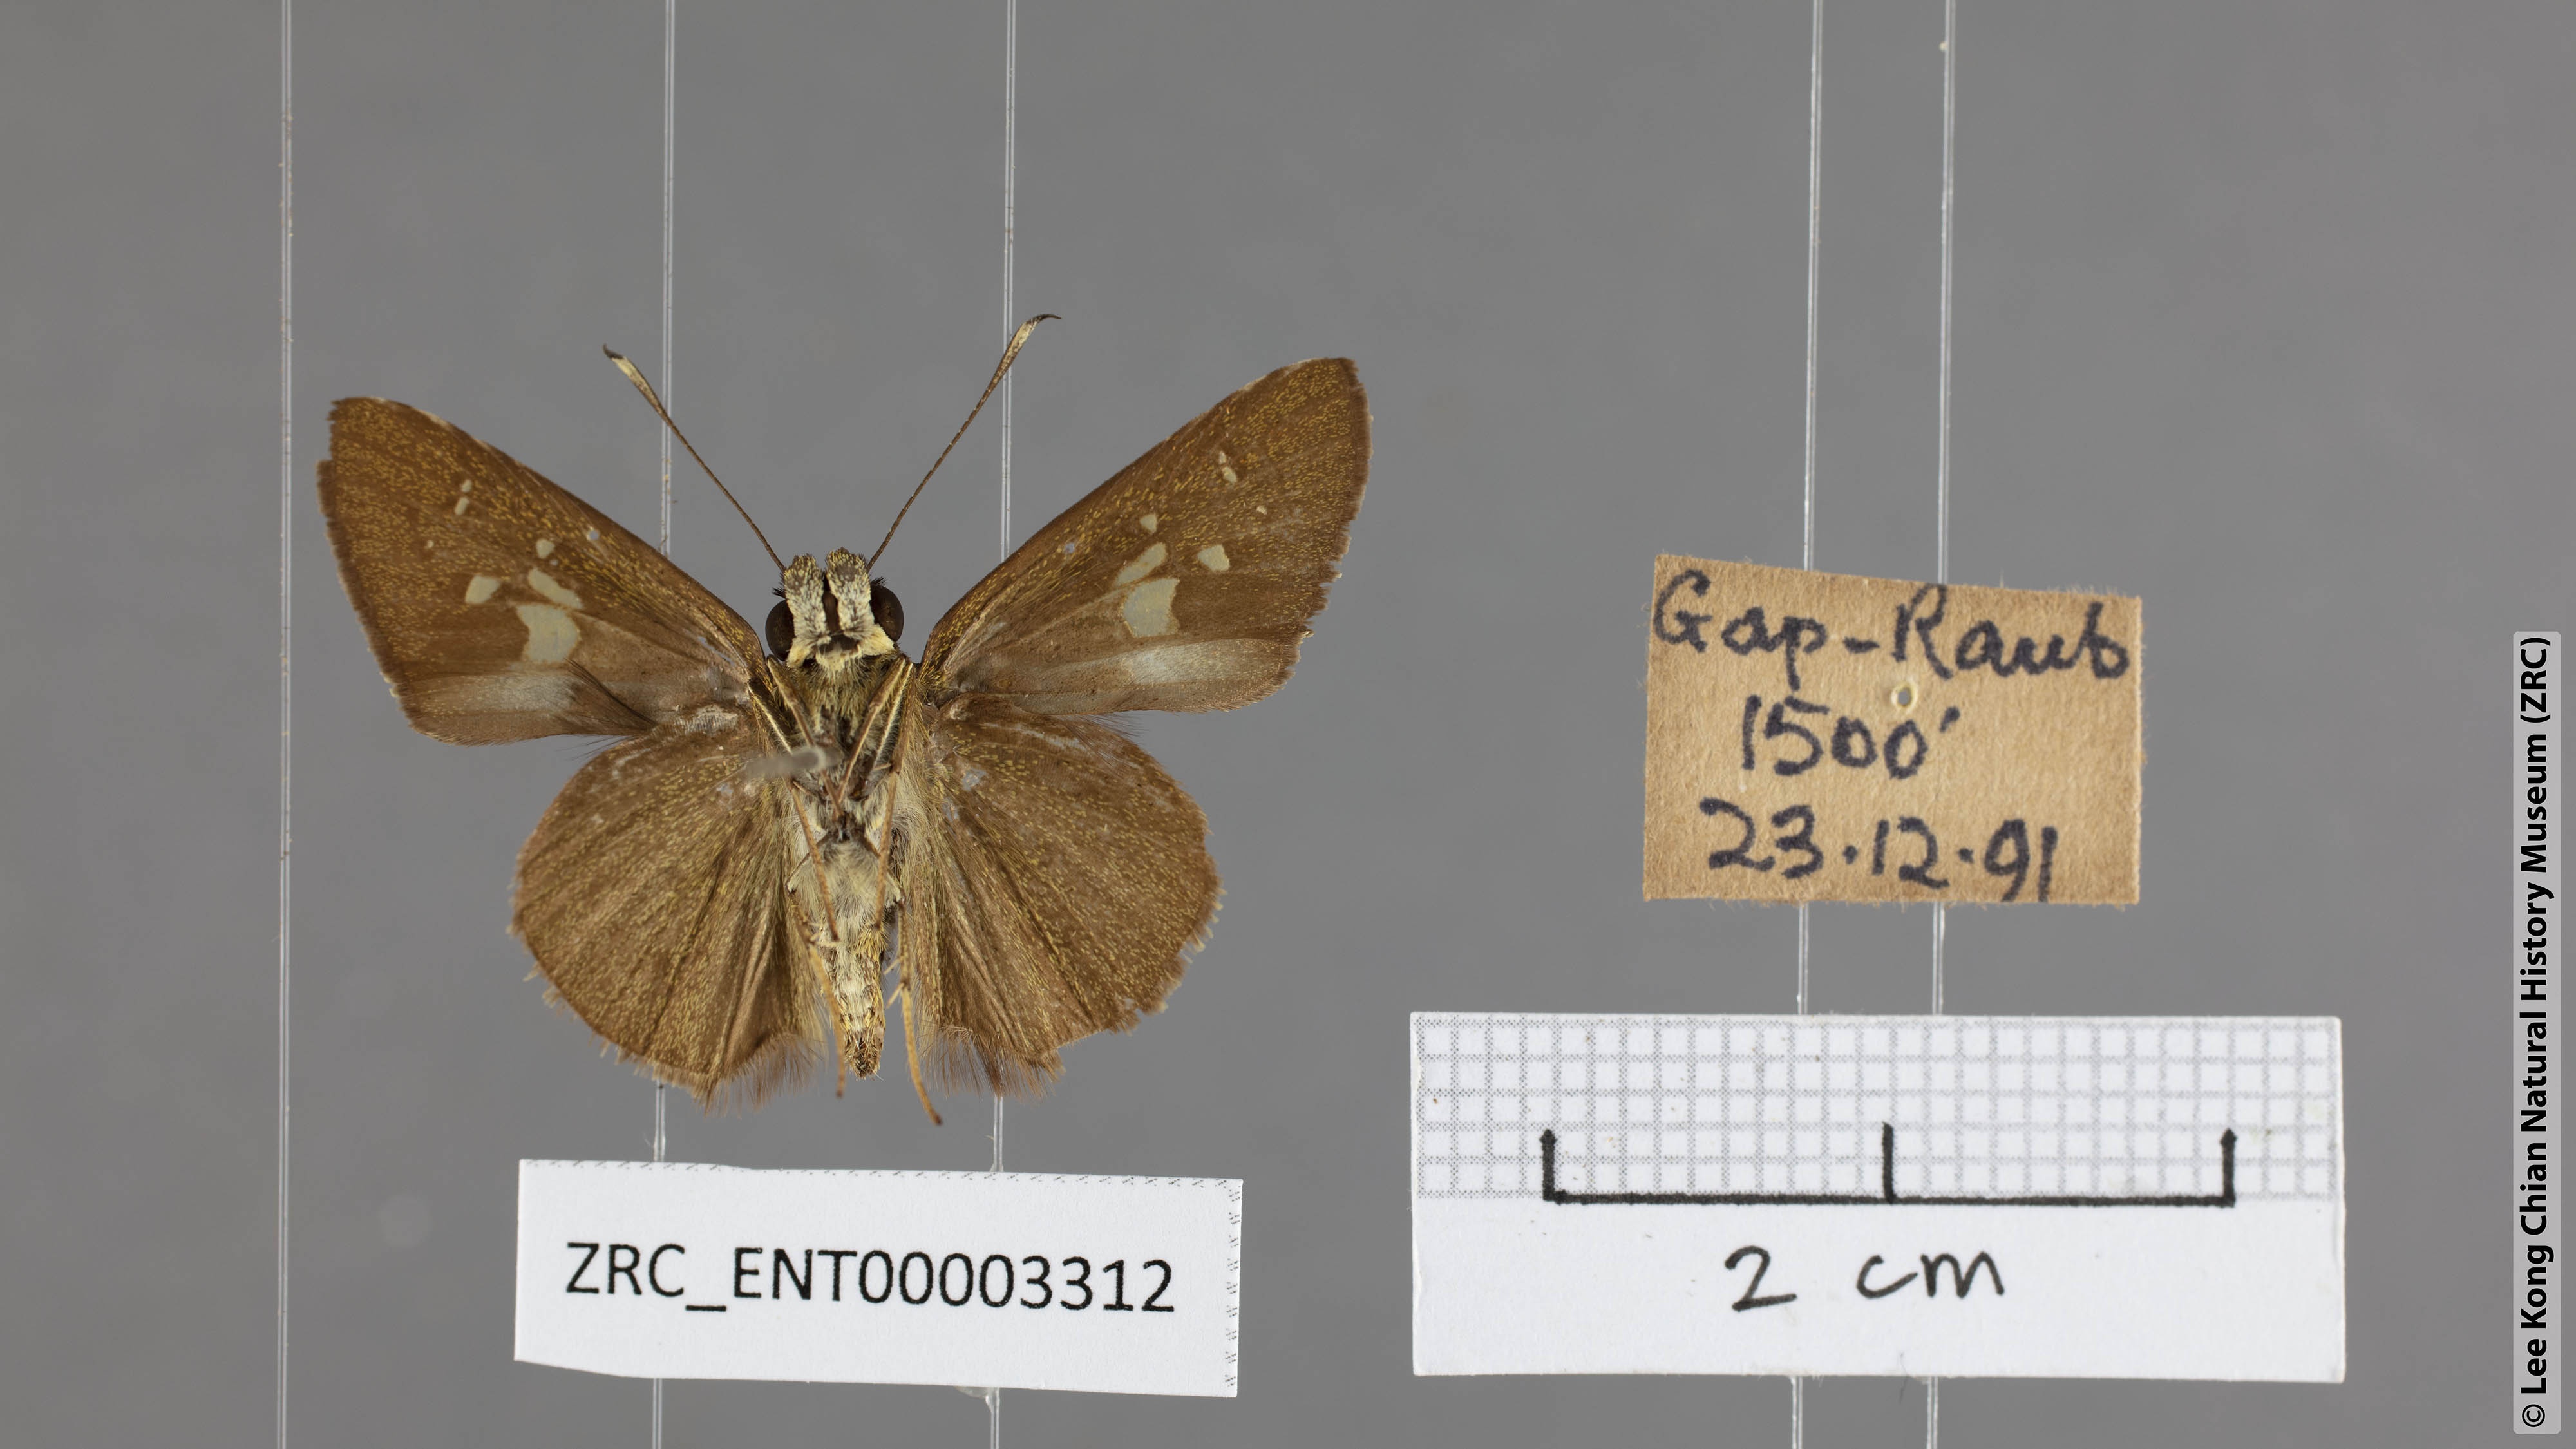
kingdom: Animalia
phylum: Arthropoda
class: Insecta
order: Lepidoptera
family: Hesperiidae
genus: Isma
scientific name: Isma
